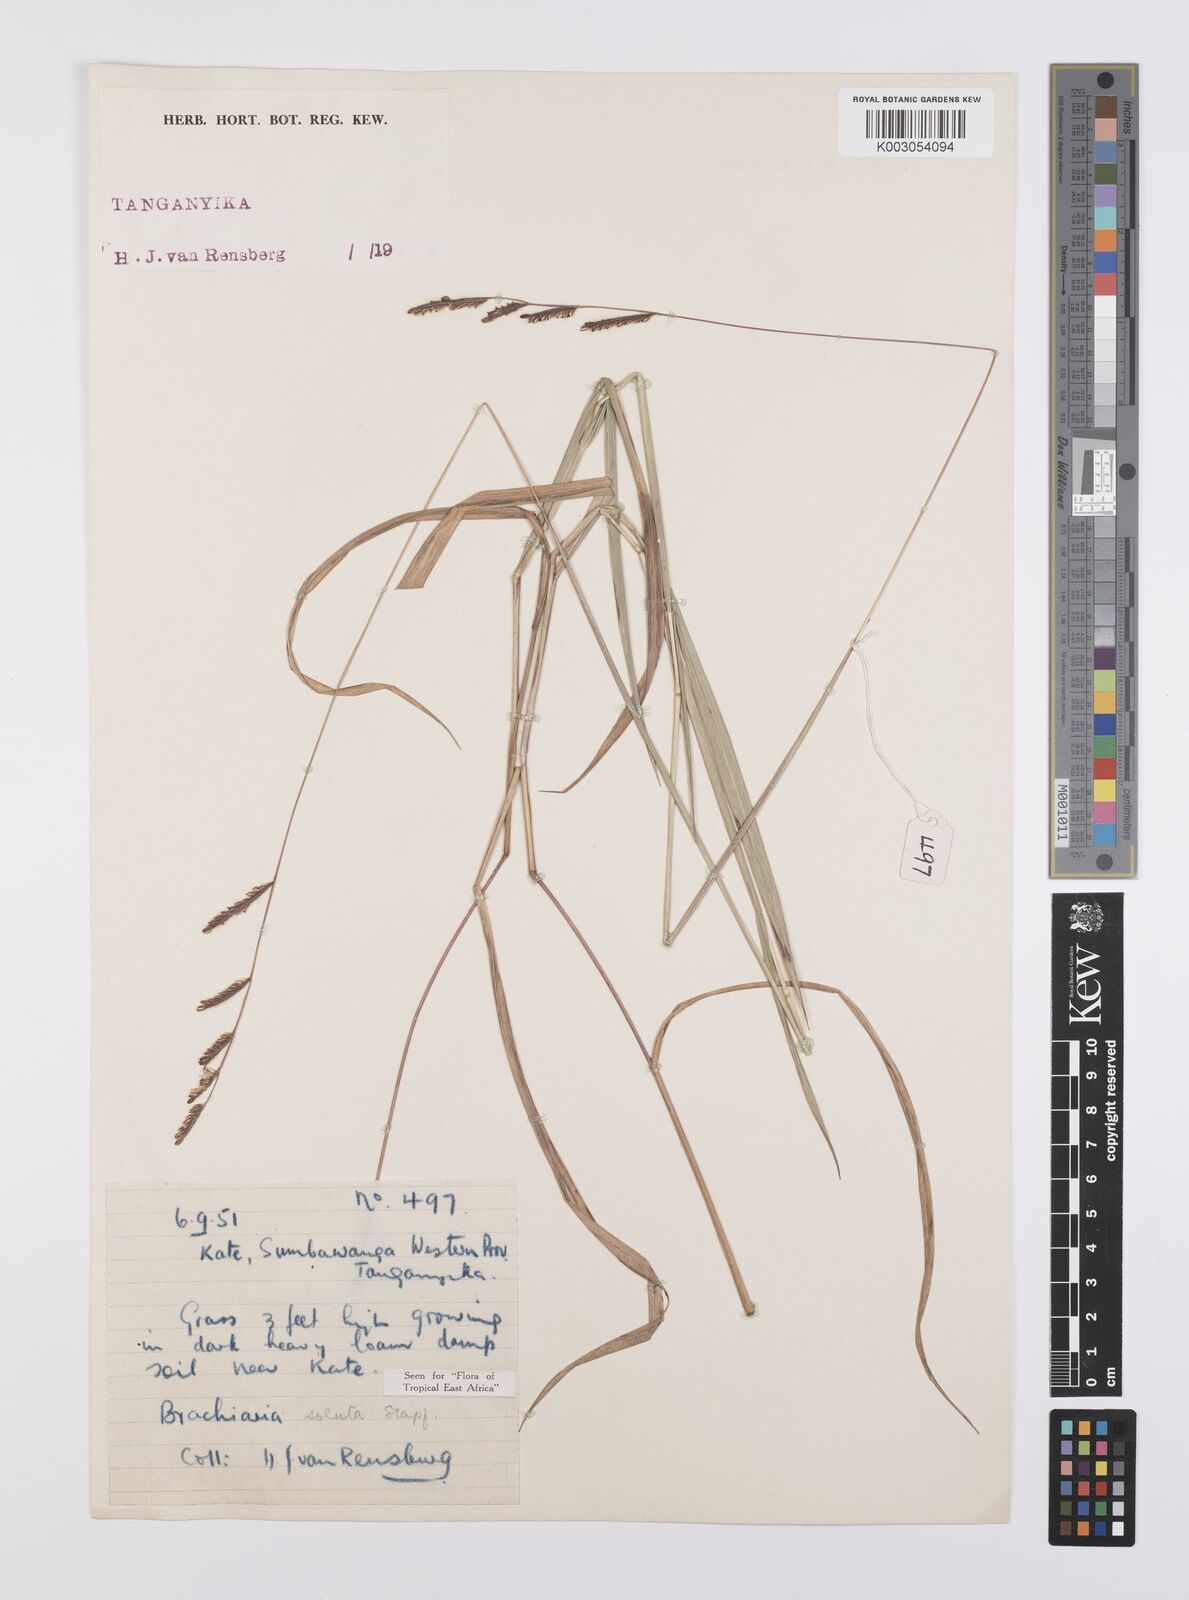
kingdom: Plantae
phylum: Tracheophyta
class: Liliopsida
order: Poales
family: Poaceae
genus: Urochloa
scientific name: Urochloa jubata
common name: Buffalograss
